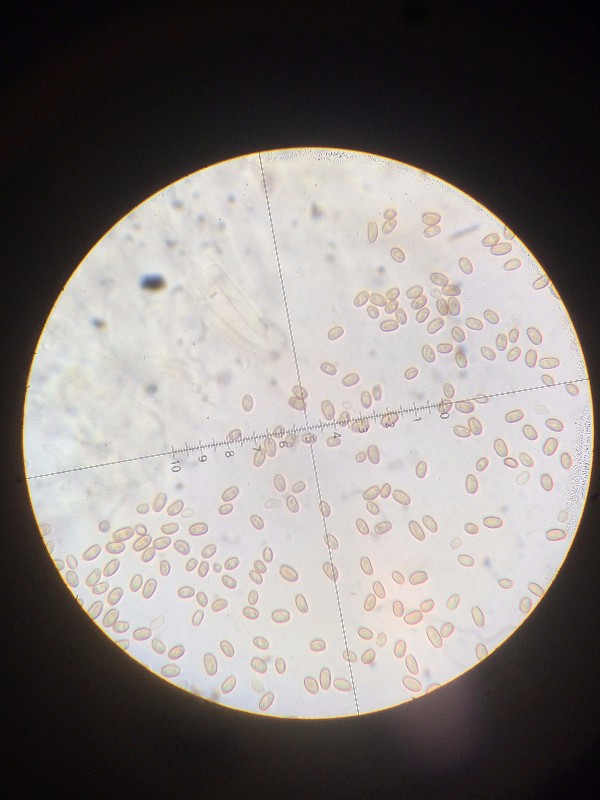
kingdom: Fungi
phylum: Basidiomycota
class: Agaricomycetes
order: Agaricales
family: Strophariaceae
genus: Pholiota
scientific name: Pholiota conissans
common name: pile-skælhat
